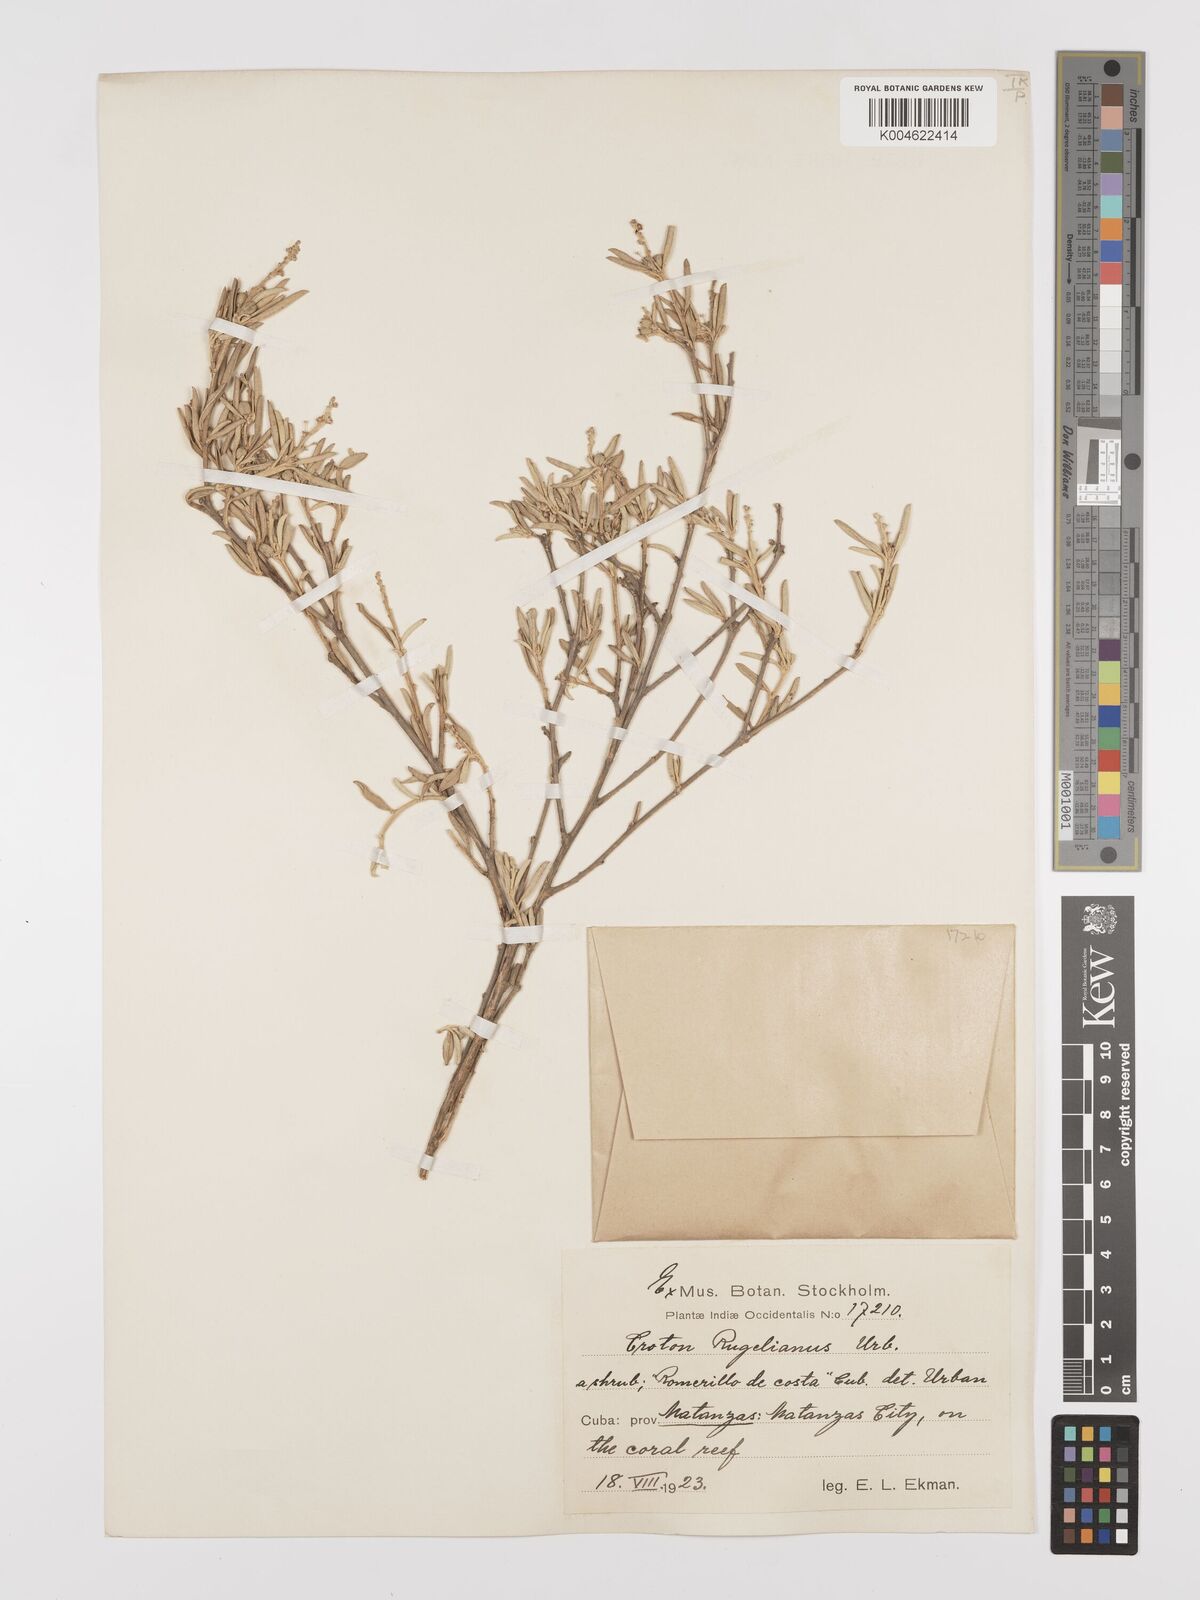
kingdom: Plantae
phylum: Tracheophyta
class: Magnoliopsida
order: Malpighiales
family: Euphorbiaceae
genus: Croton
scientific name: Croton stenophyllus
